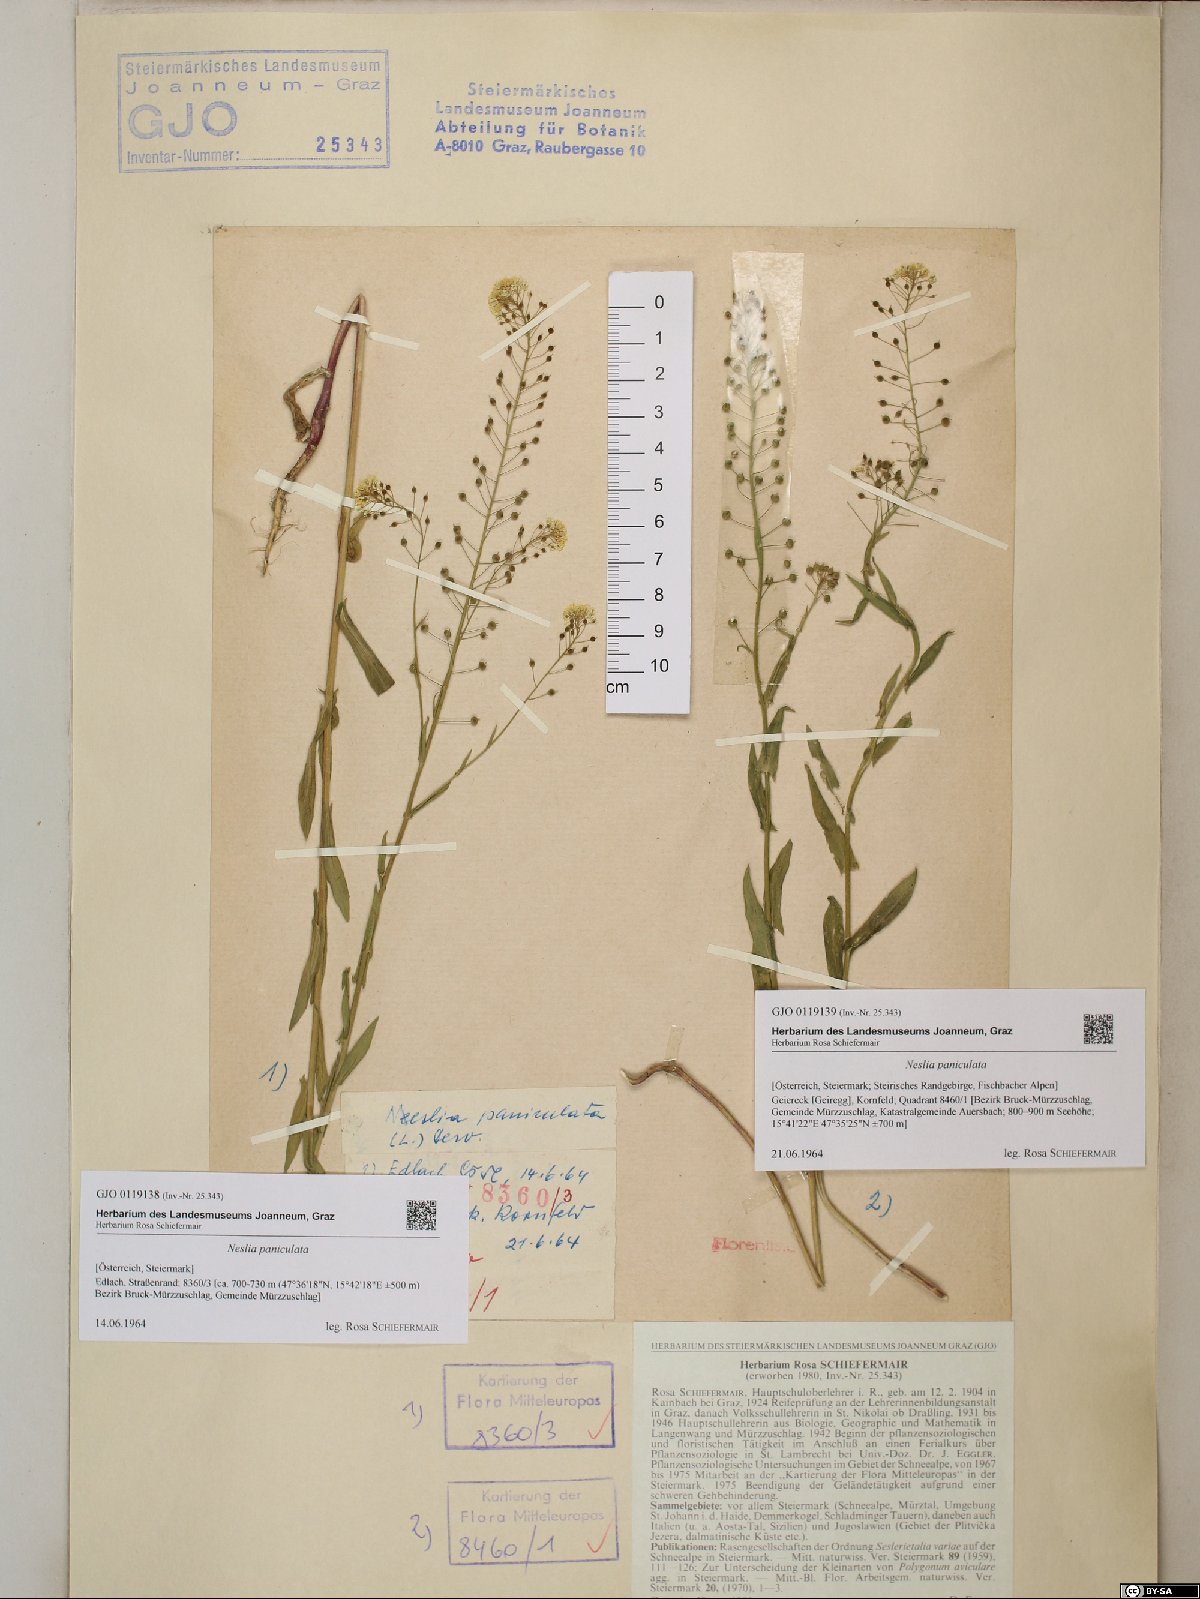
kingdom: Plantae
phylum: Tracheophyta
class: Magnoliopsida
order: Brassicales
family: Brassicaceae
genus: Neslia
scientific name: Neslia paniculata
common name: Ball mustard
